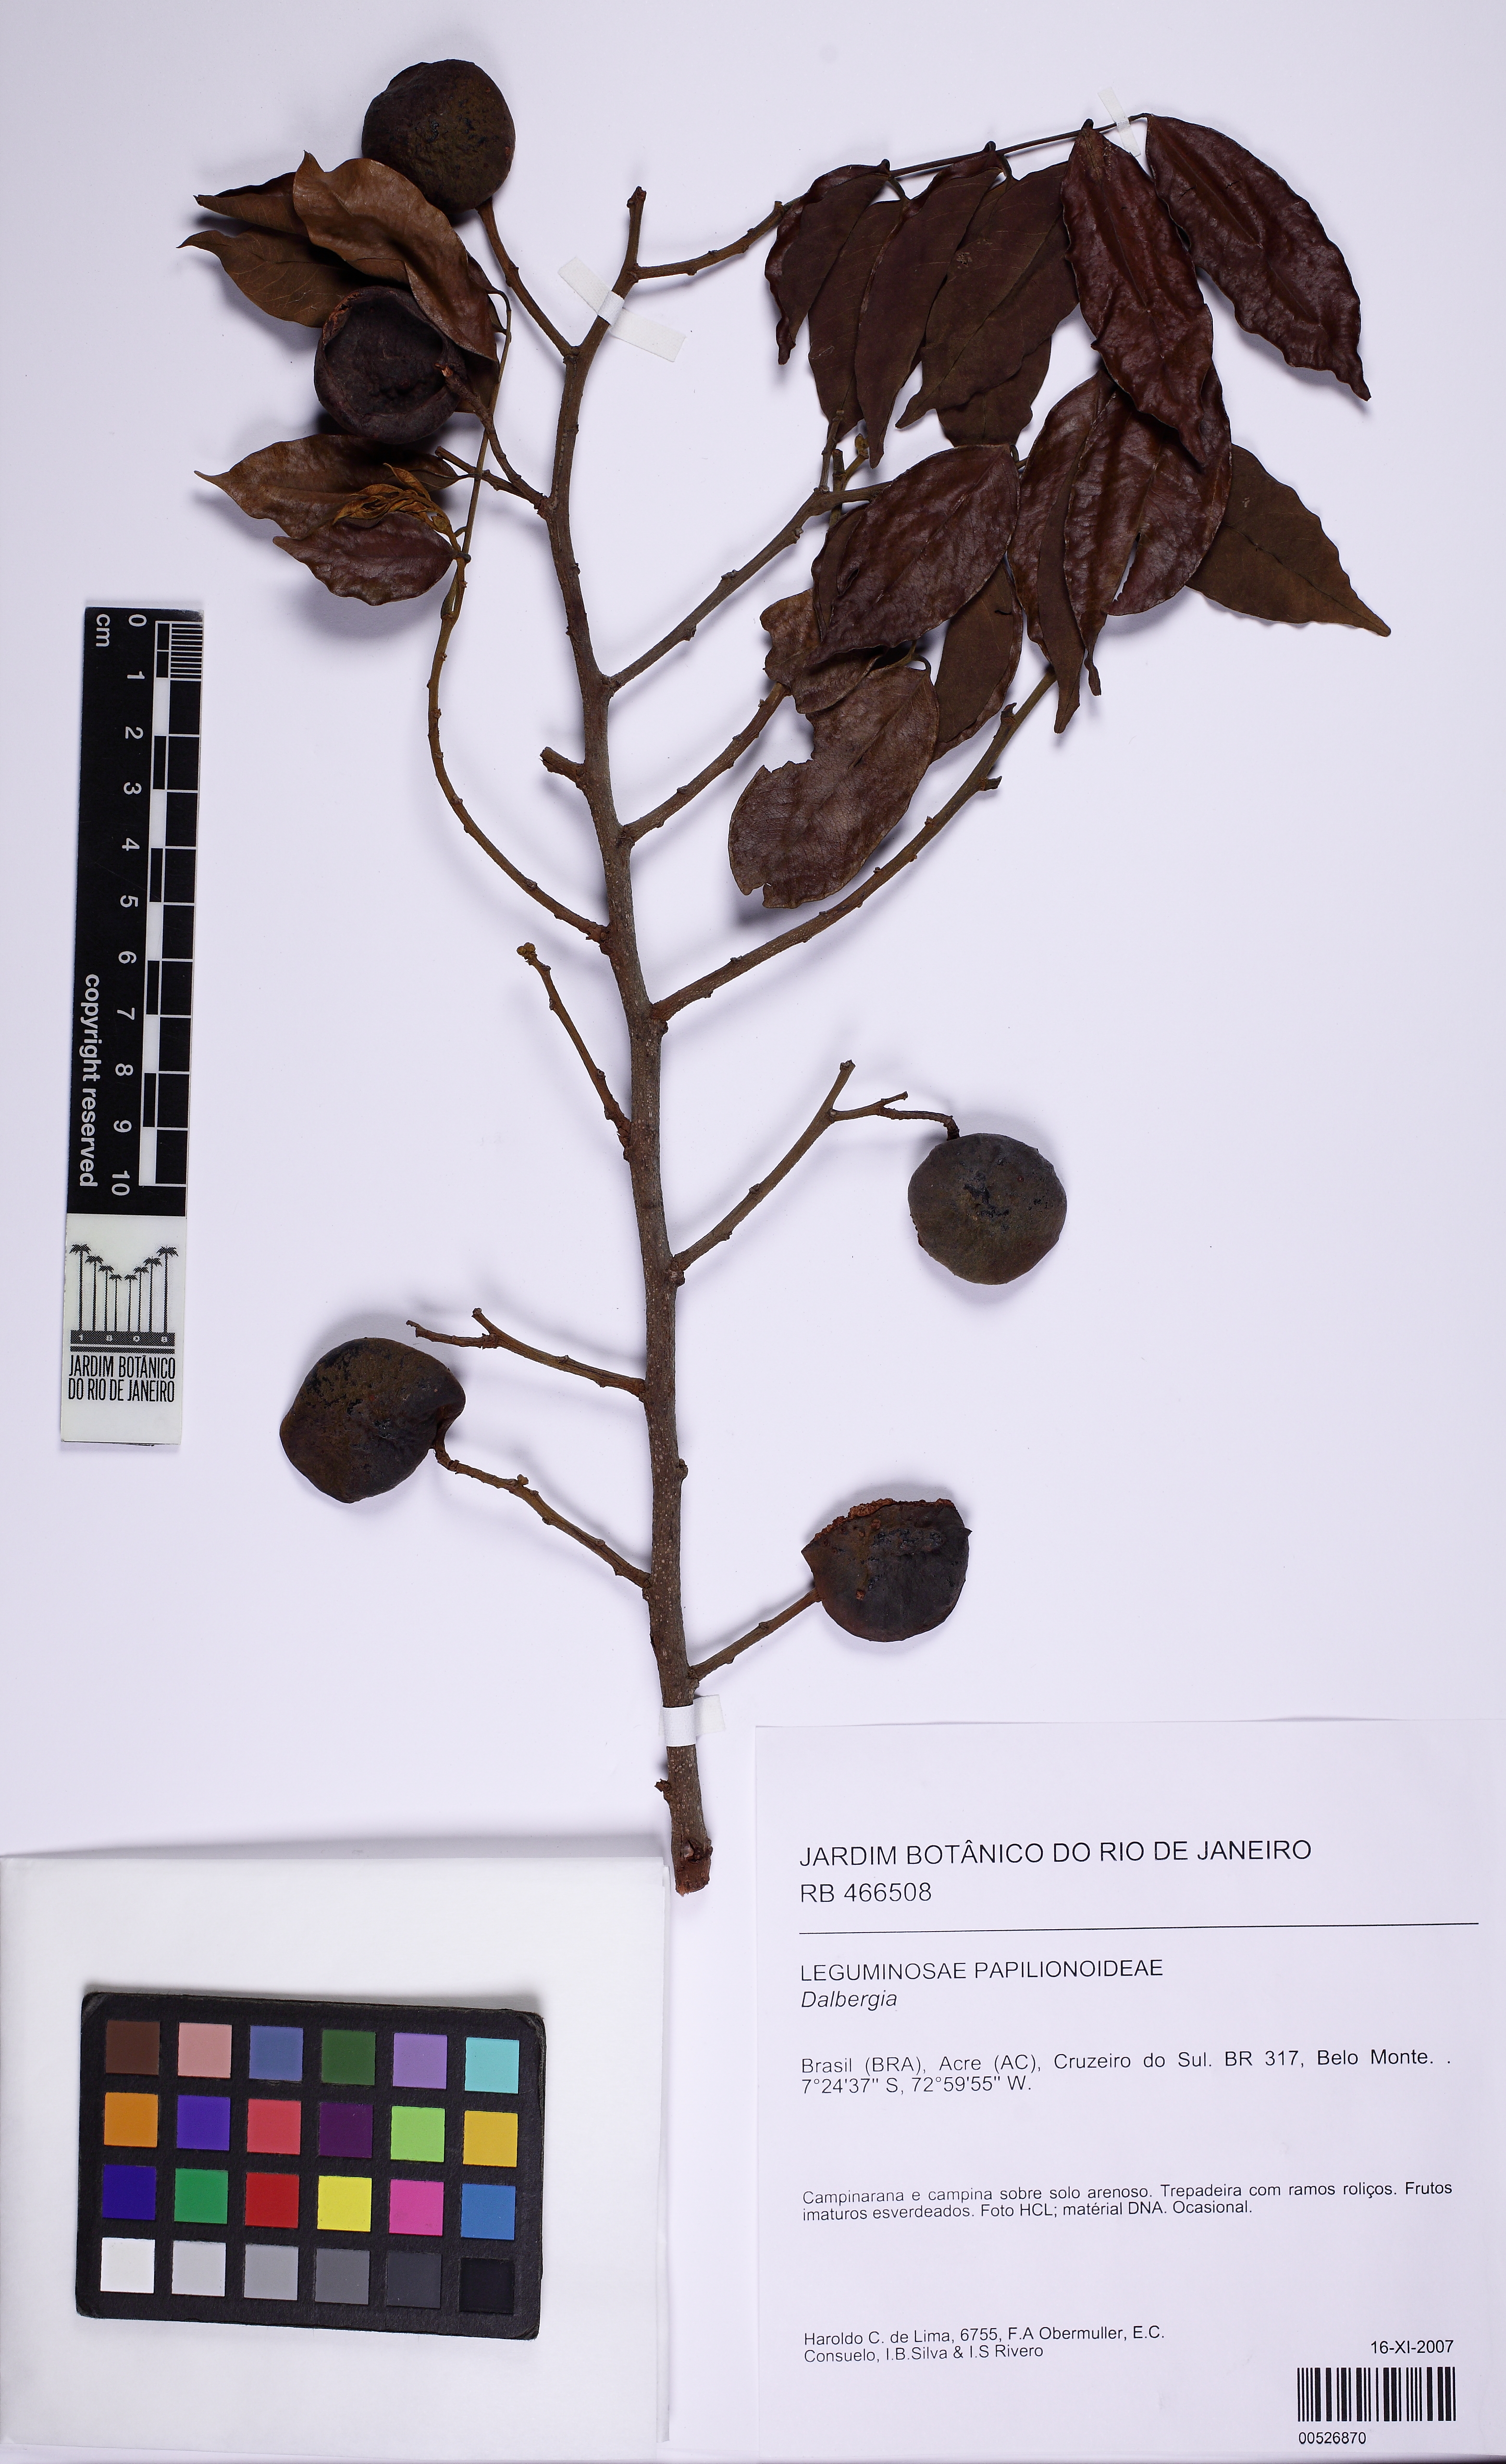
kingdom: Plantae
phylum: Tracheophyta
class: Magnoliopsida
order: Fabales
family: Fabaceae
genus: Dalbergia
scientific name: Dalbergia
